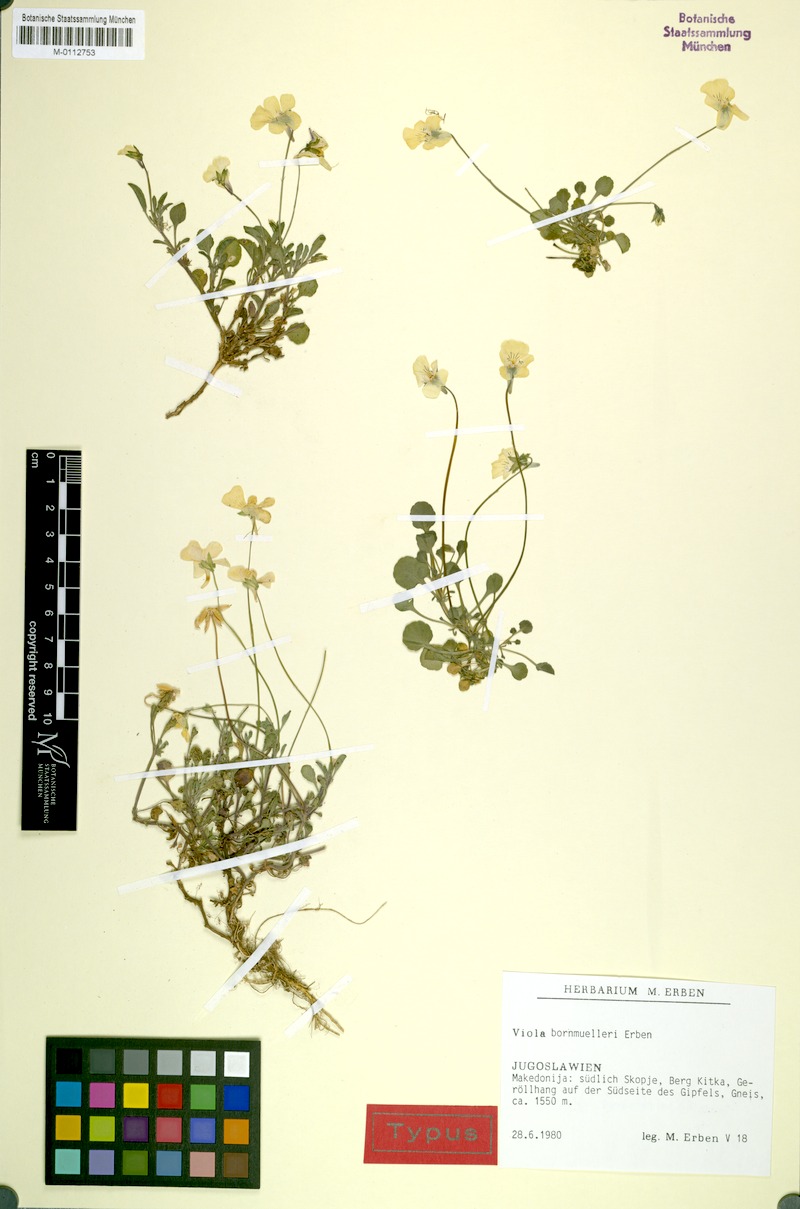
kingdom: Plantae
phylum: Tracheophyta
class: Magnoliopsida
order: Malpighiales
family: Violaceae
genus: Viola
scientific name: Viola bornmuelleri
